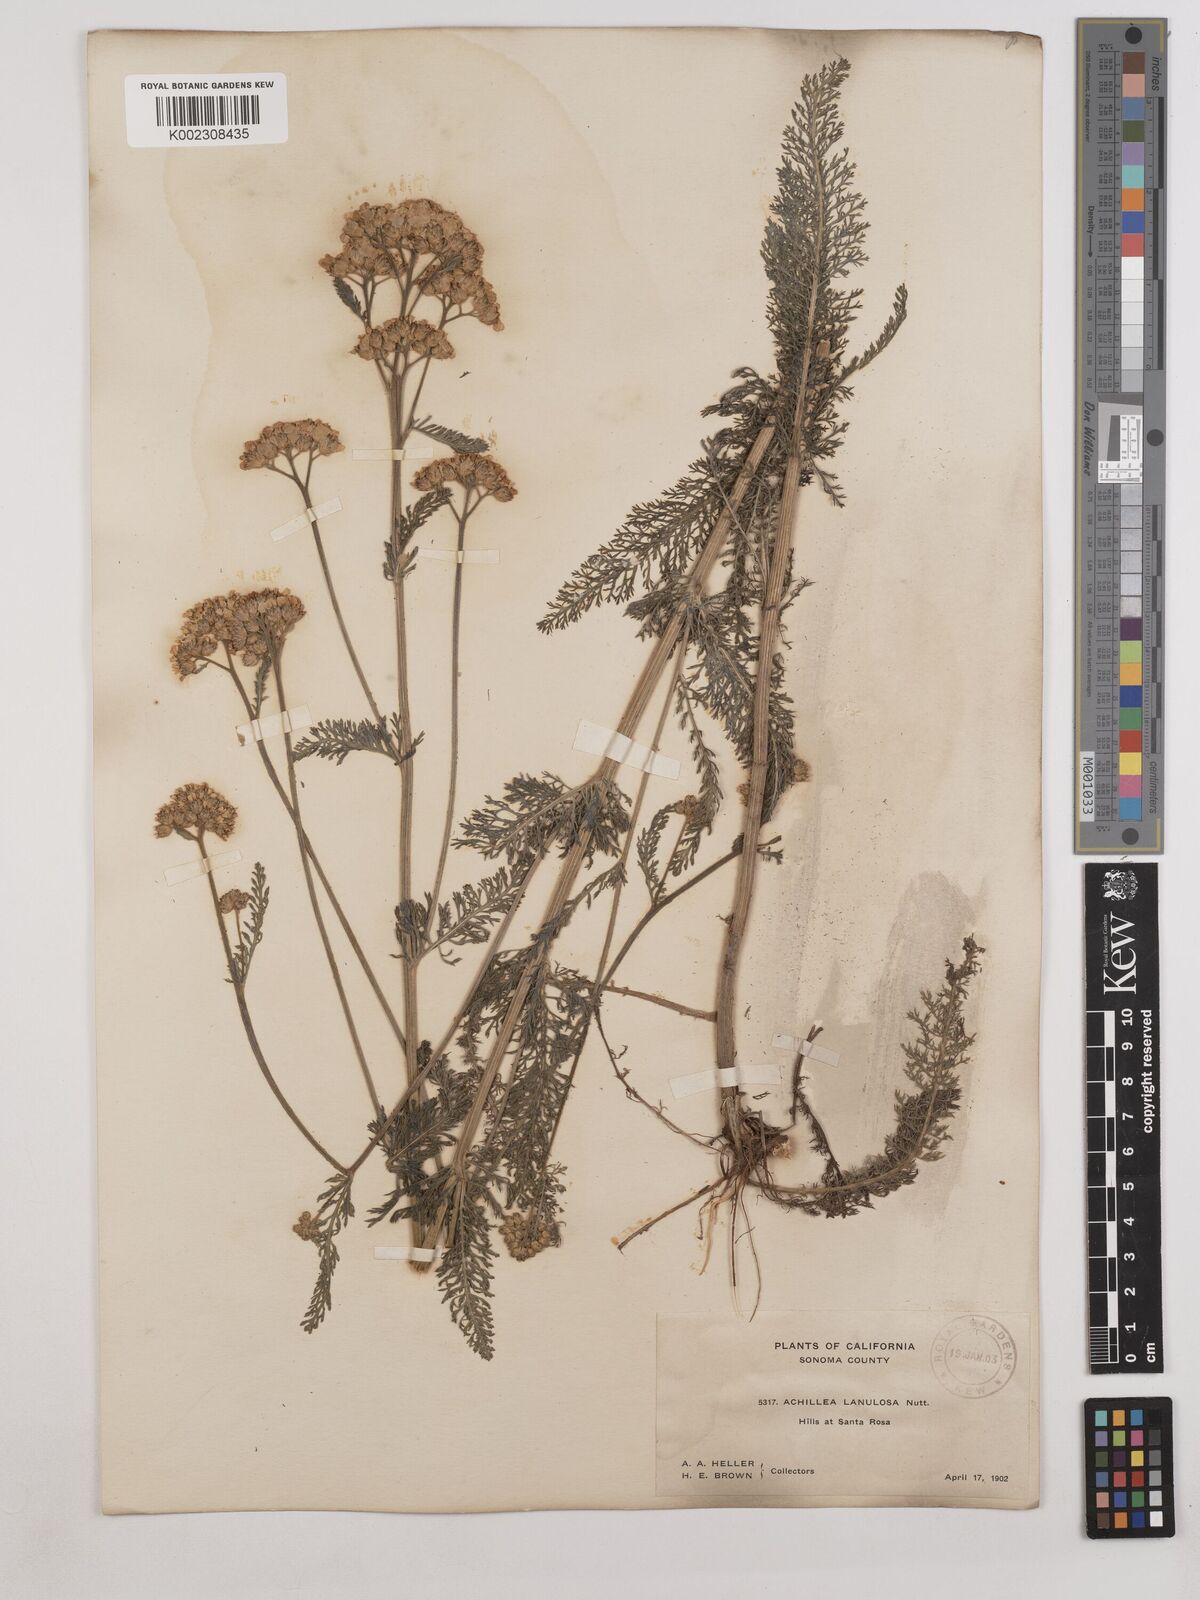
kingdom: Plantae
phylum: Tracheophyta
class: Magnoliopsida
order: Asterales
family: Asteraceae
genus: Achillea
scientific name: Achillea millefolium
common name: Yarrow
